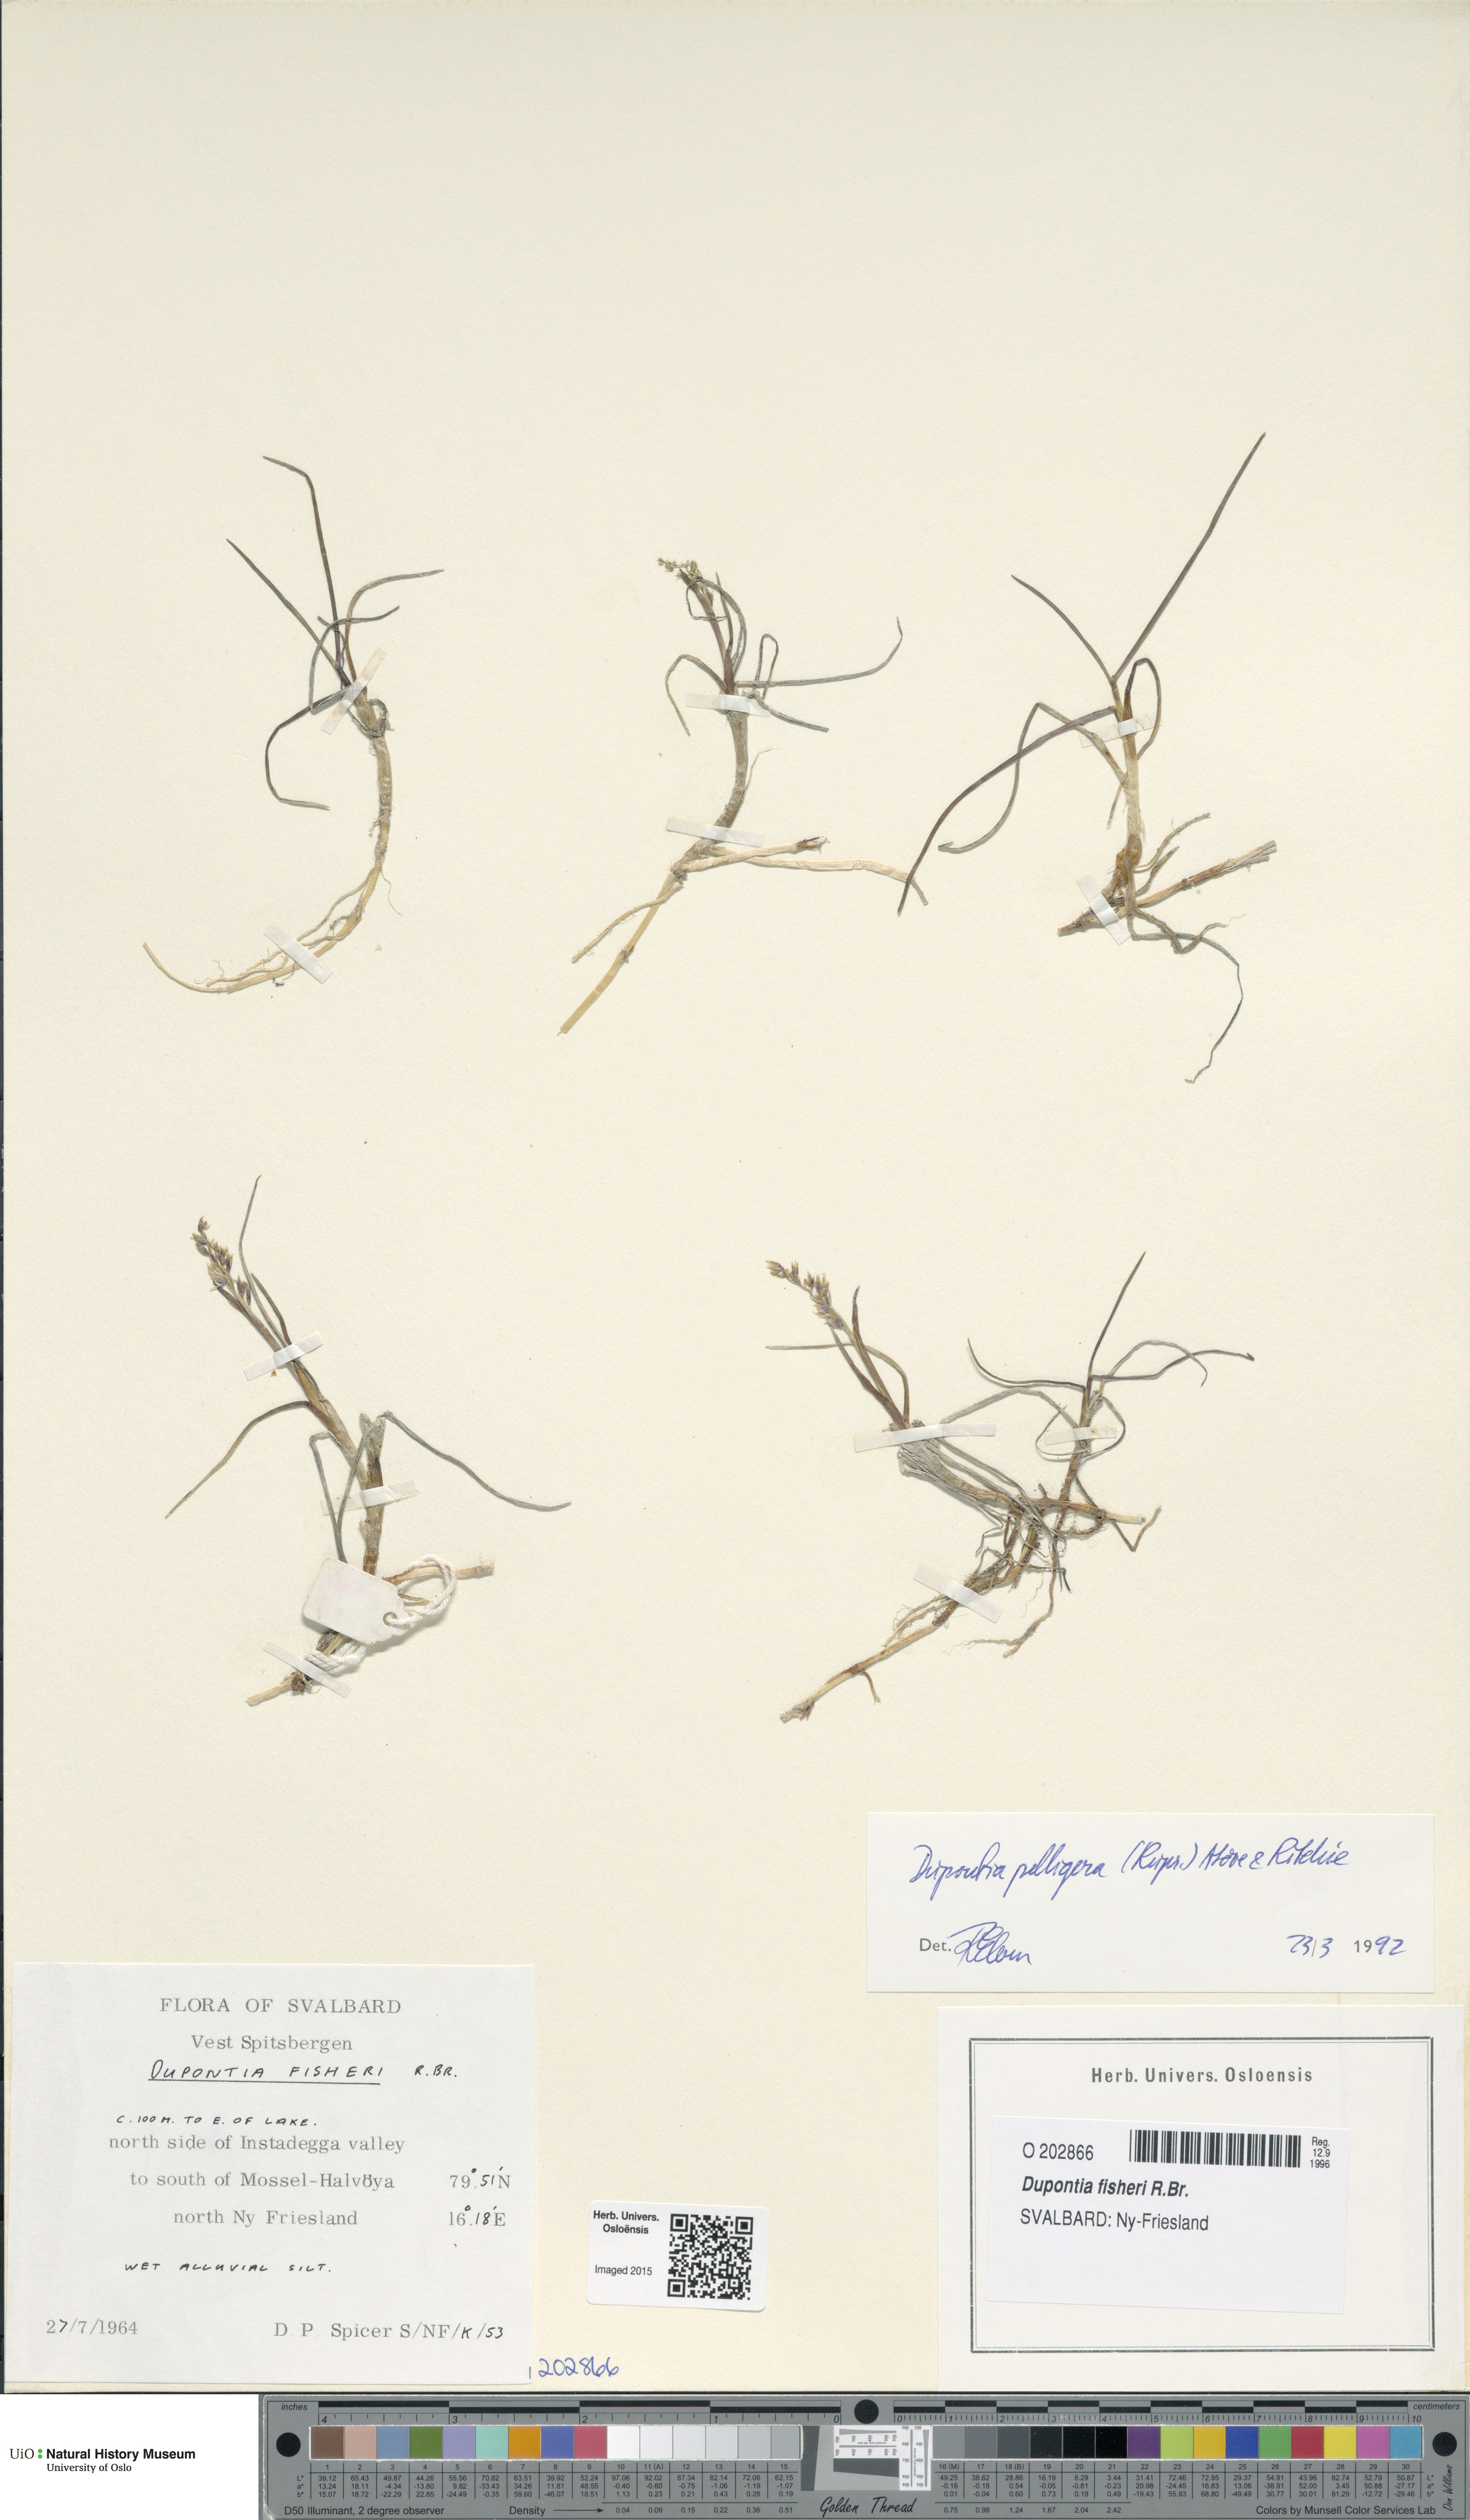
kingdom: Plantae
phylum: Tracheophyta
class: Liliopsida
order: Poales
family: Poaceae
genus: Dupontia
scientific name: Dupontia fisheri
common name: Tundra grass
